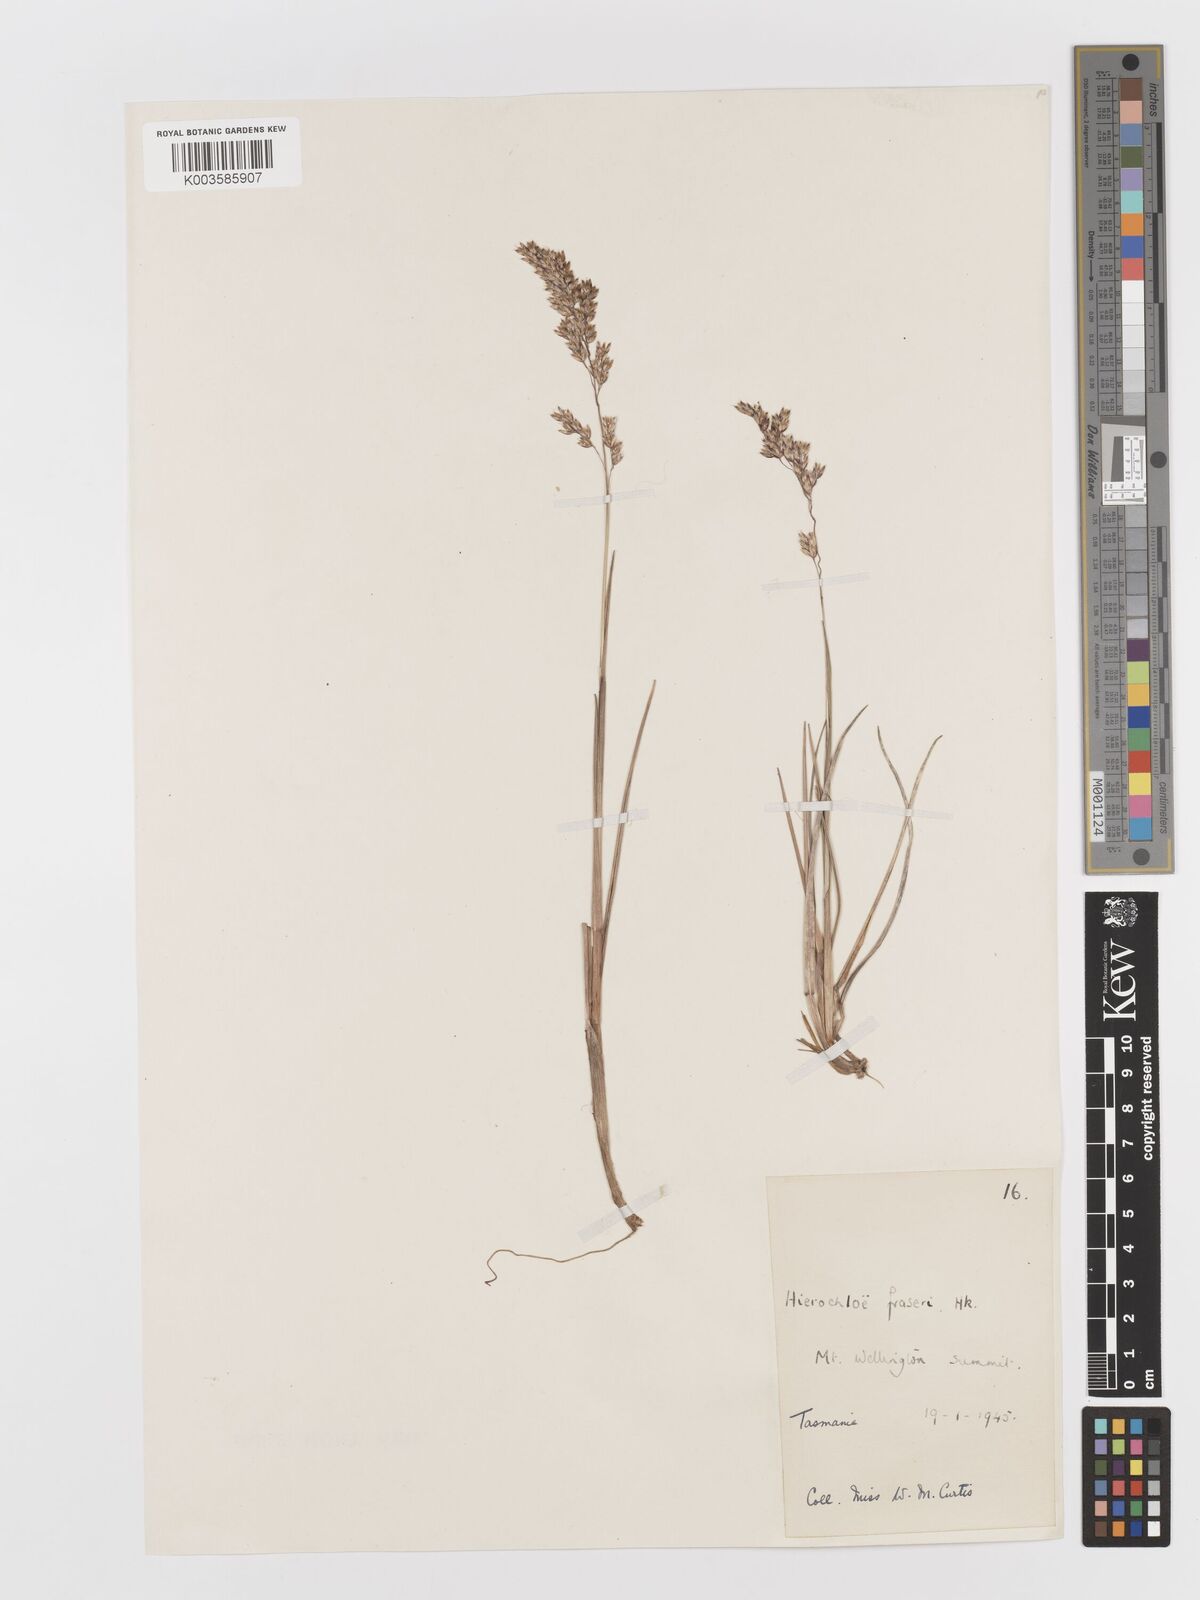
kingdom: Plantae
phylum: Tracheophyta
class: Liliopsida
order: Poales
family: Poaceae
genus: Anthoxanthum
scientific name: Anthoxanthum redolens
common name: Sweet holy grass
